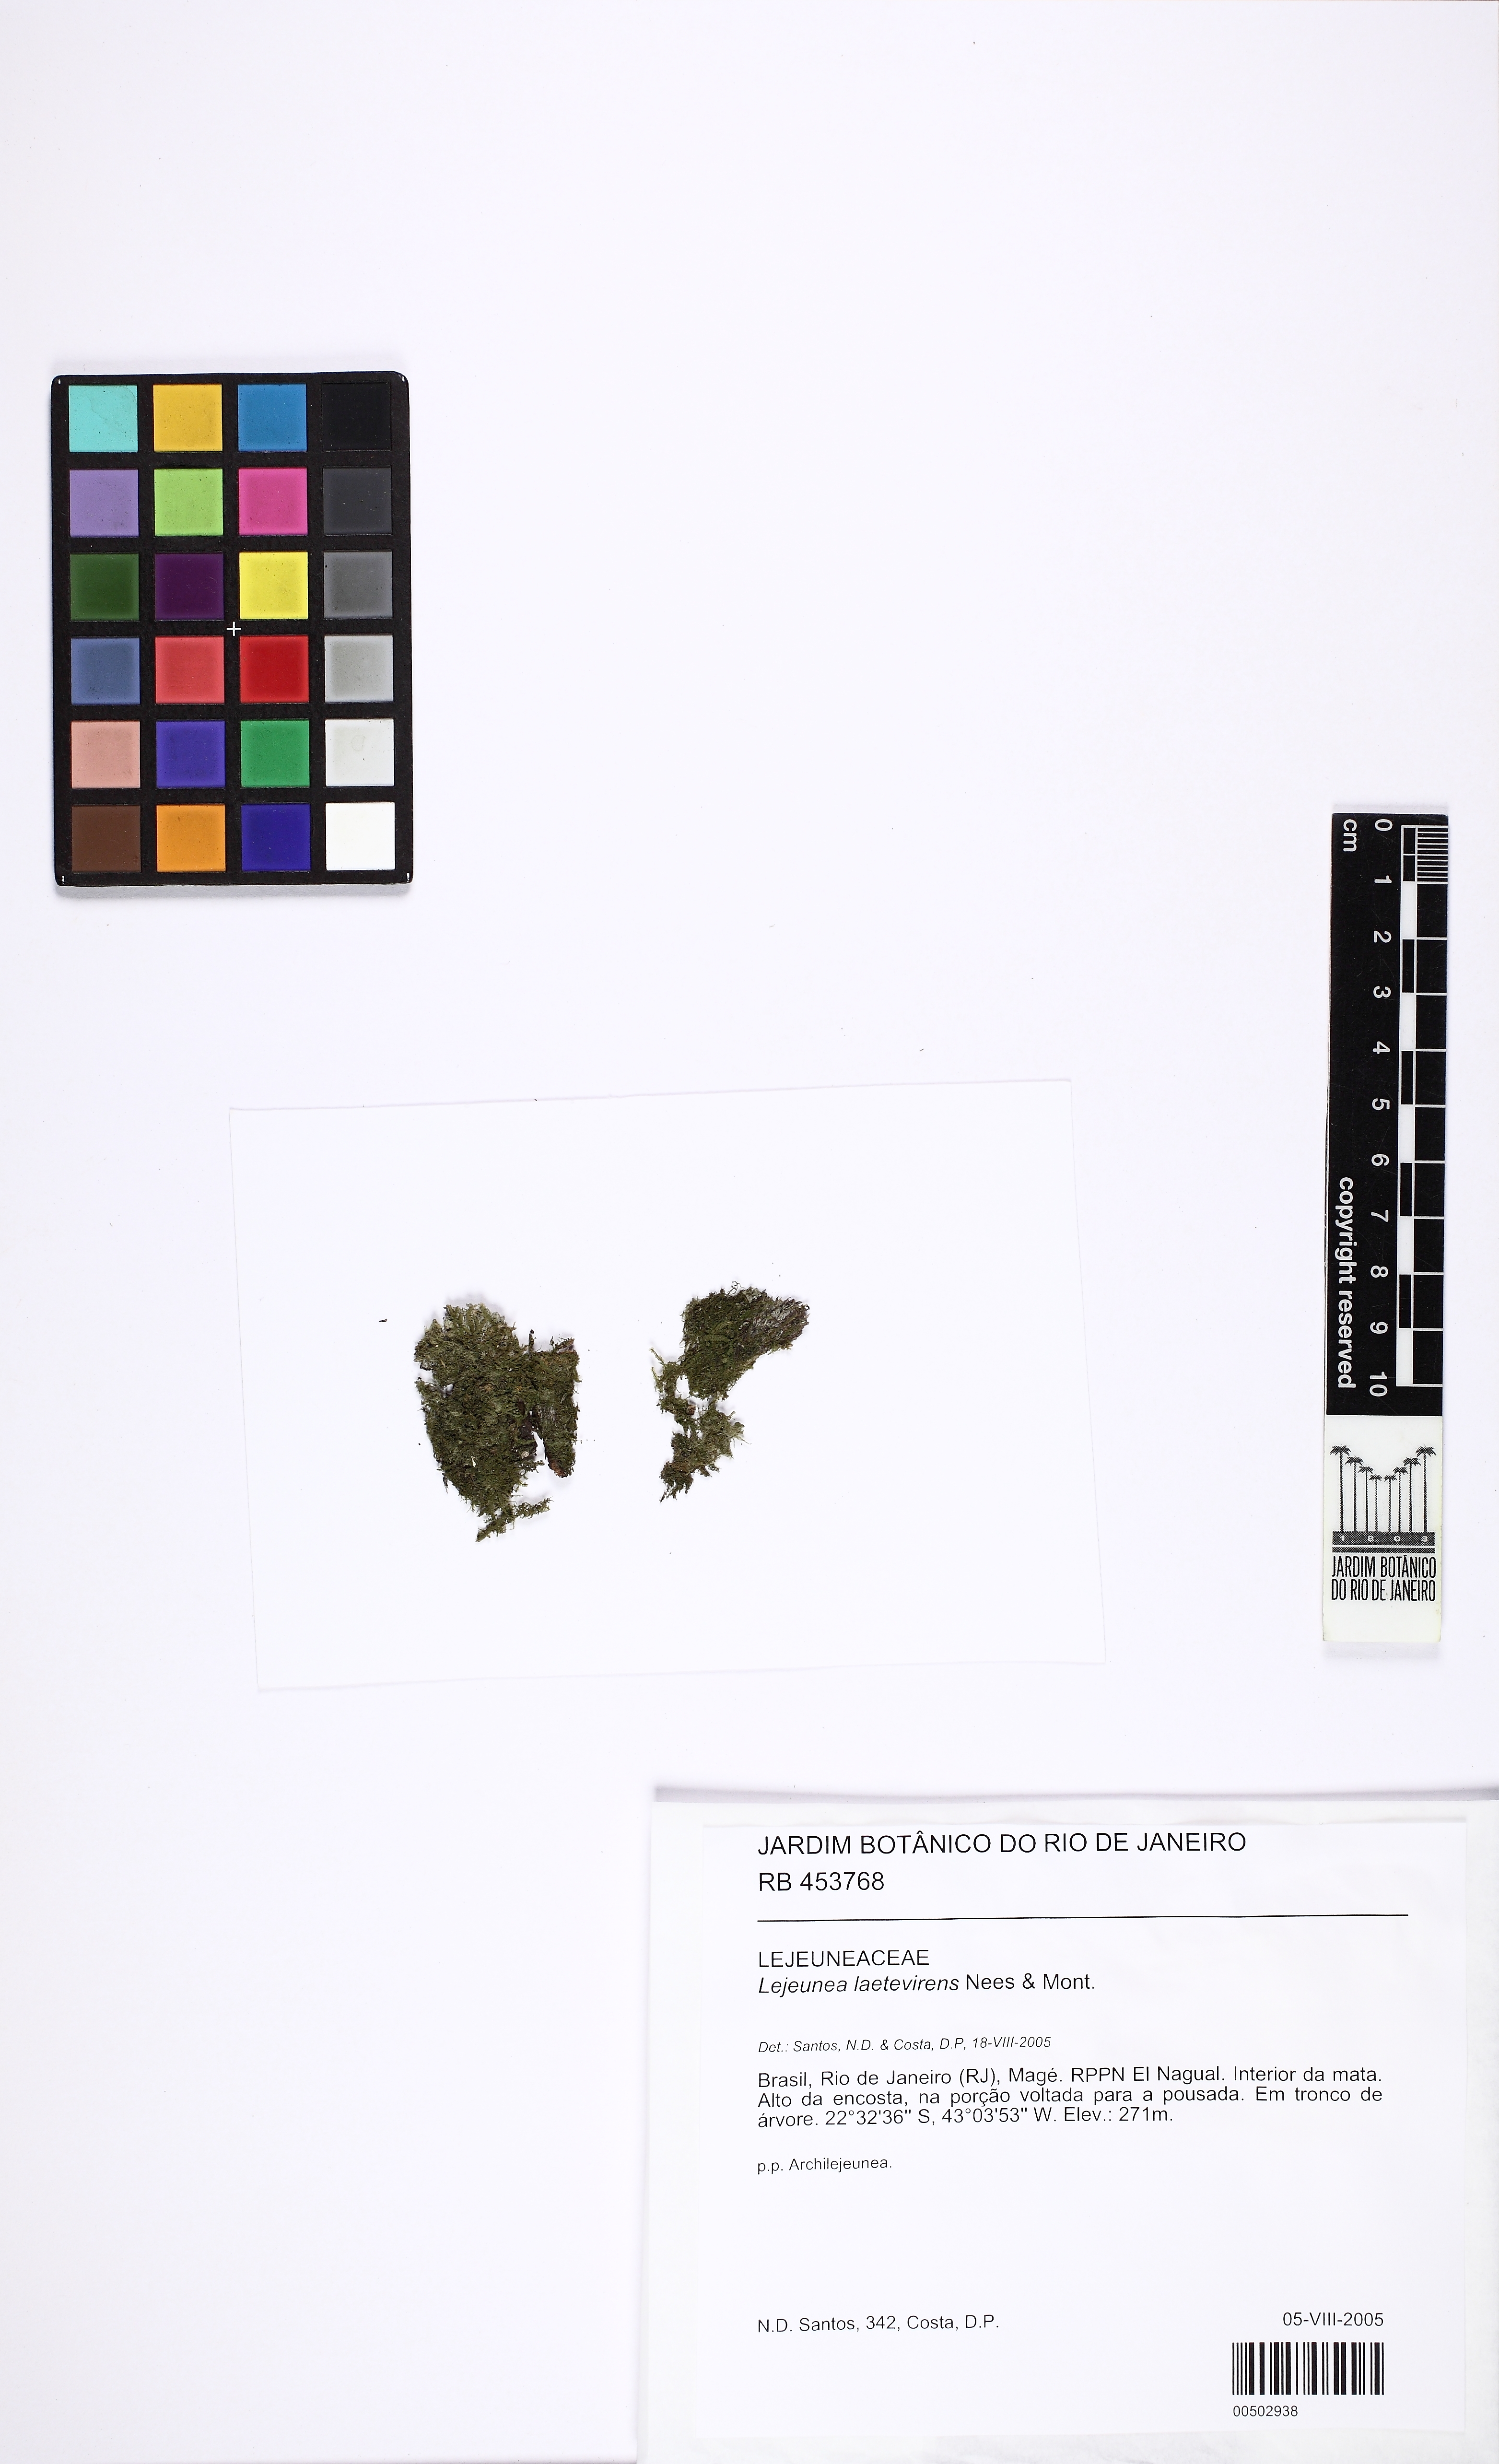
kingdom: Plantae
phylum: Marchantiophyta
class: Jungermanniopsida
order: Porellales
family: Lejeuneaceae
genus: Lejeunea
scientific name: Lejeunea laetevirens
